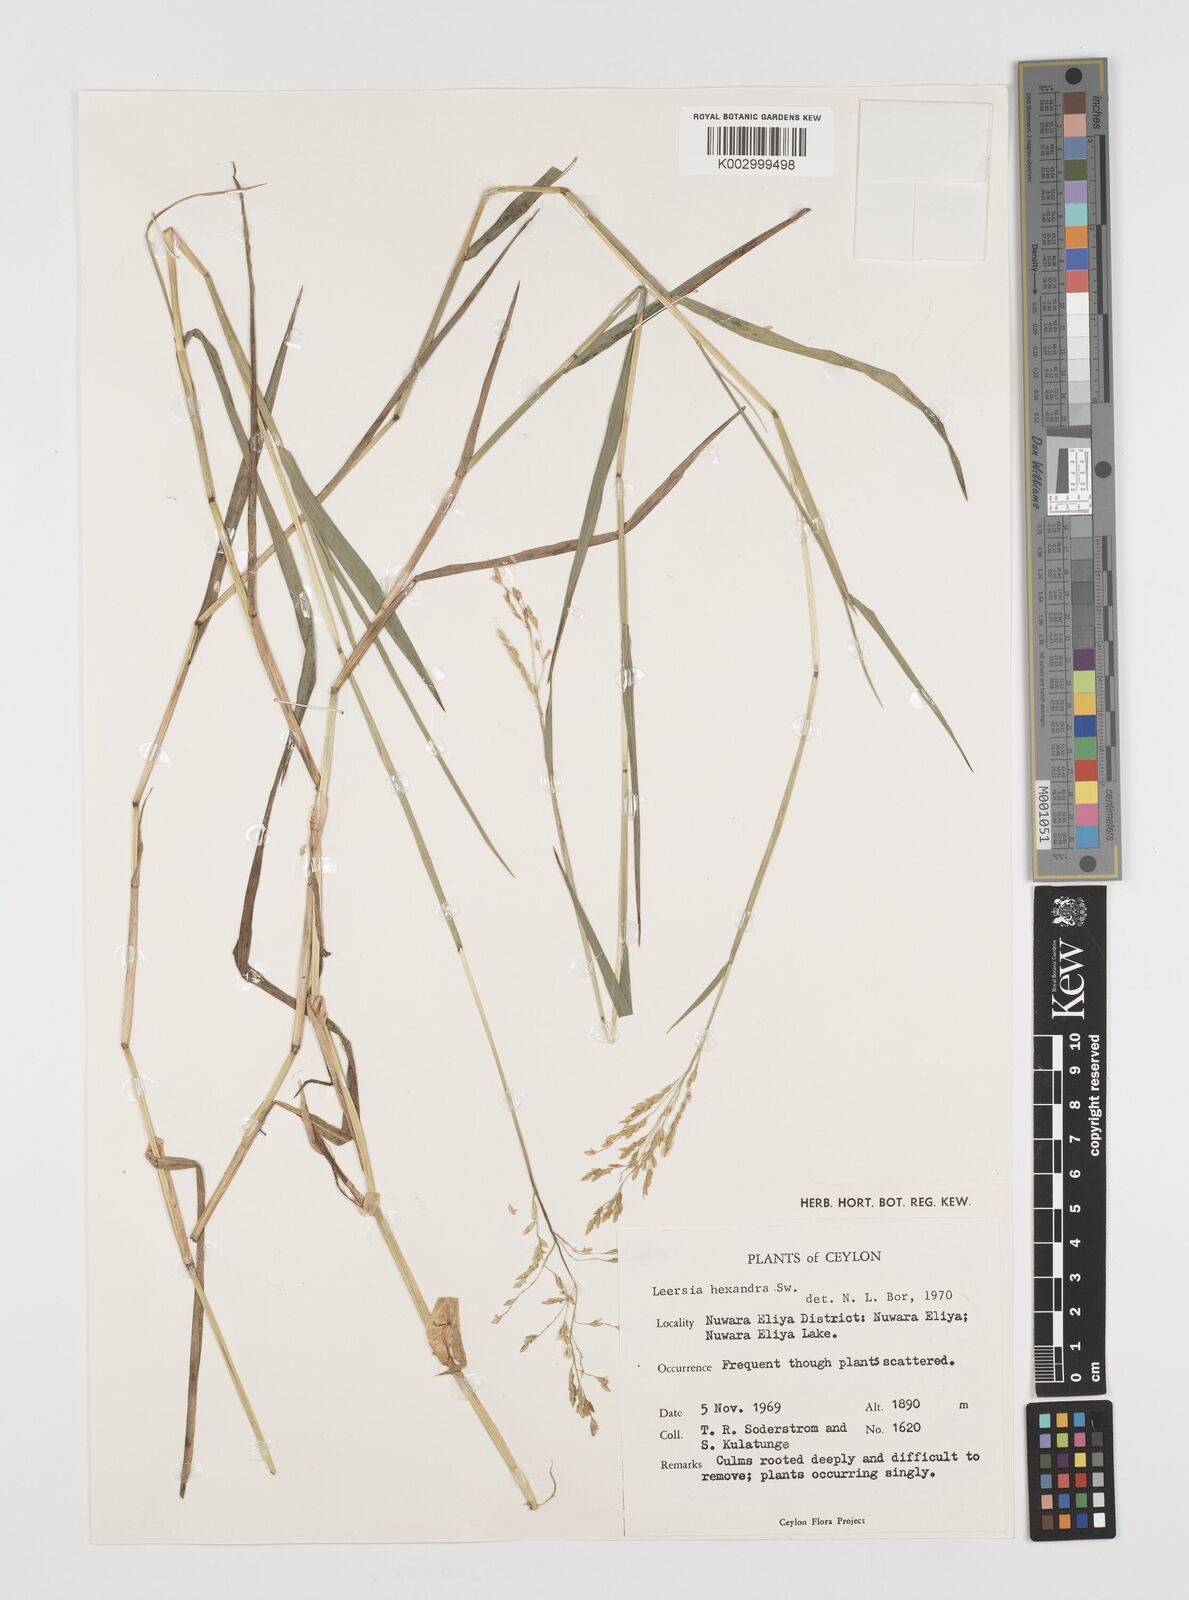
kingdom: Plantae
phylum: Tracheophyta
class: Liliopsida
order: Poales
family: Poaceae
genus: Leersia
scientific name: Leersia hexandra
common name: Southern cut grass
